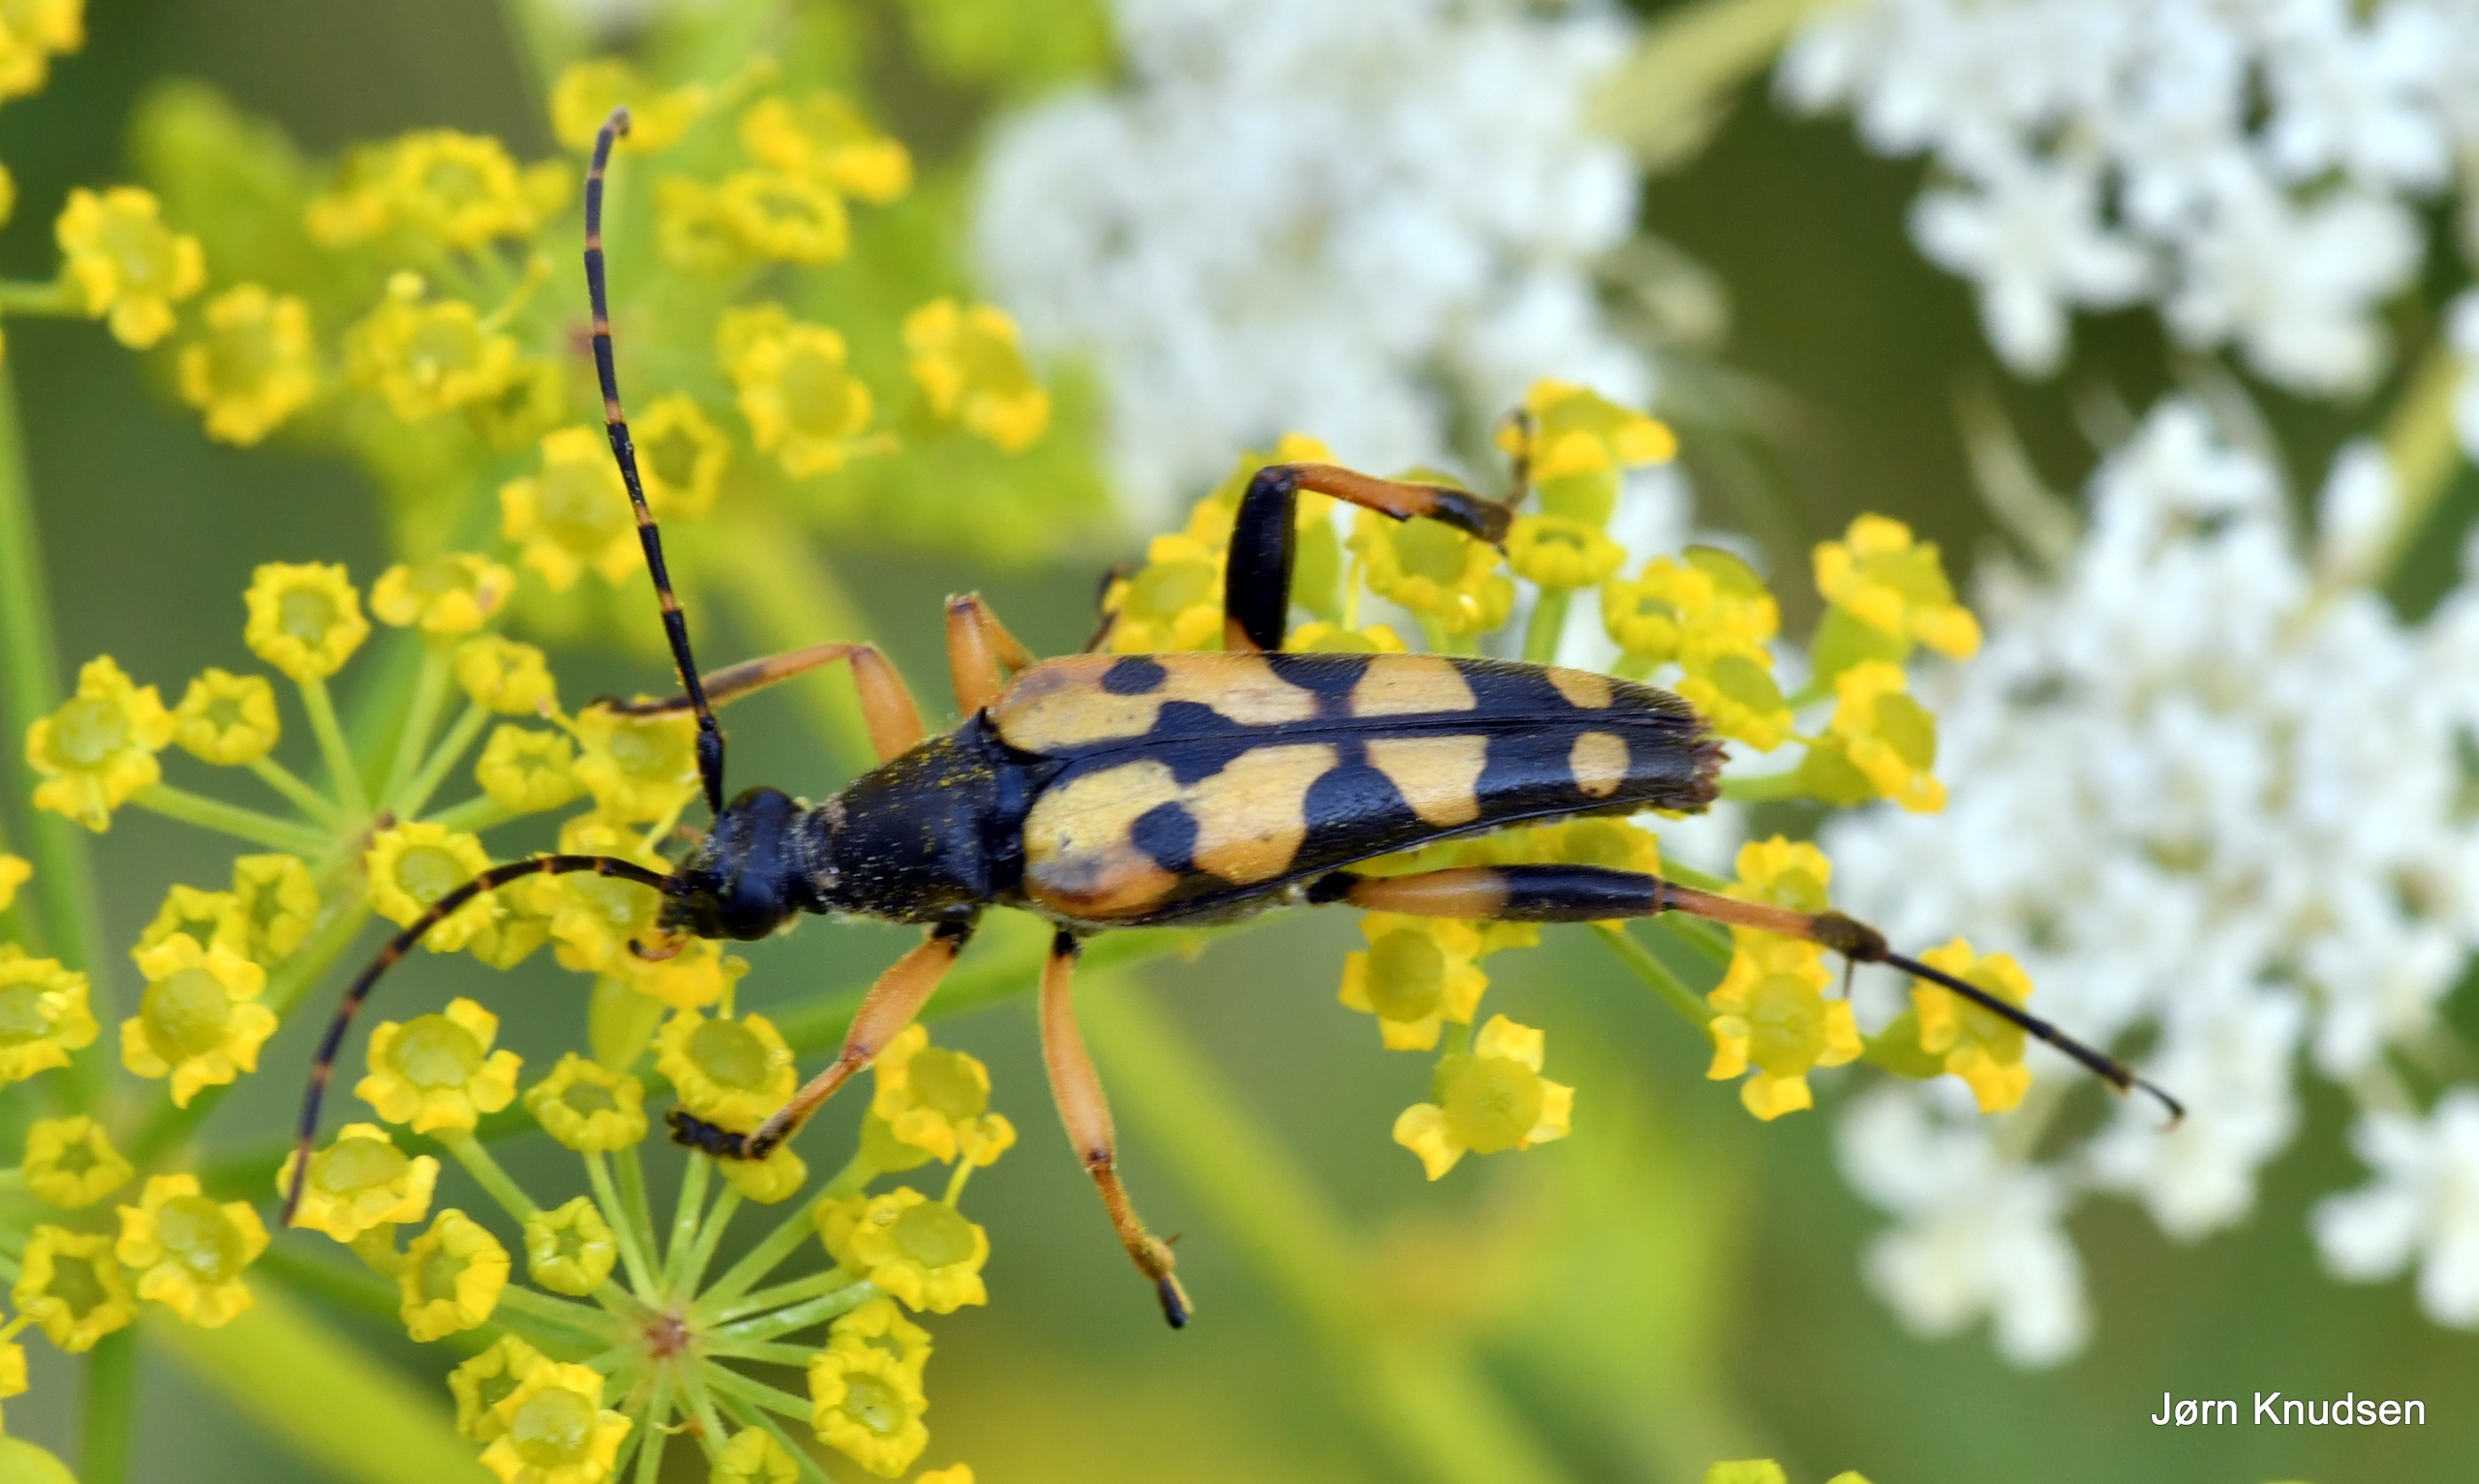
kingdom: Animalia
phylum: Arthropoda
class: Insecta
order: Coleoptera
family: Cerambycidae
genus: Rutpela
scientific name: Rutpela maculata
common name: Sydlig blomsterbuk
